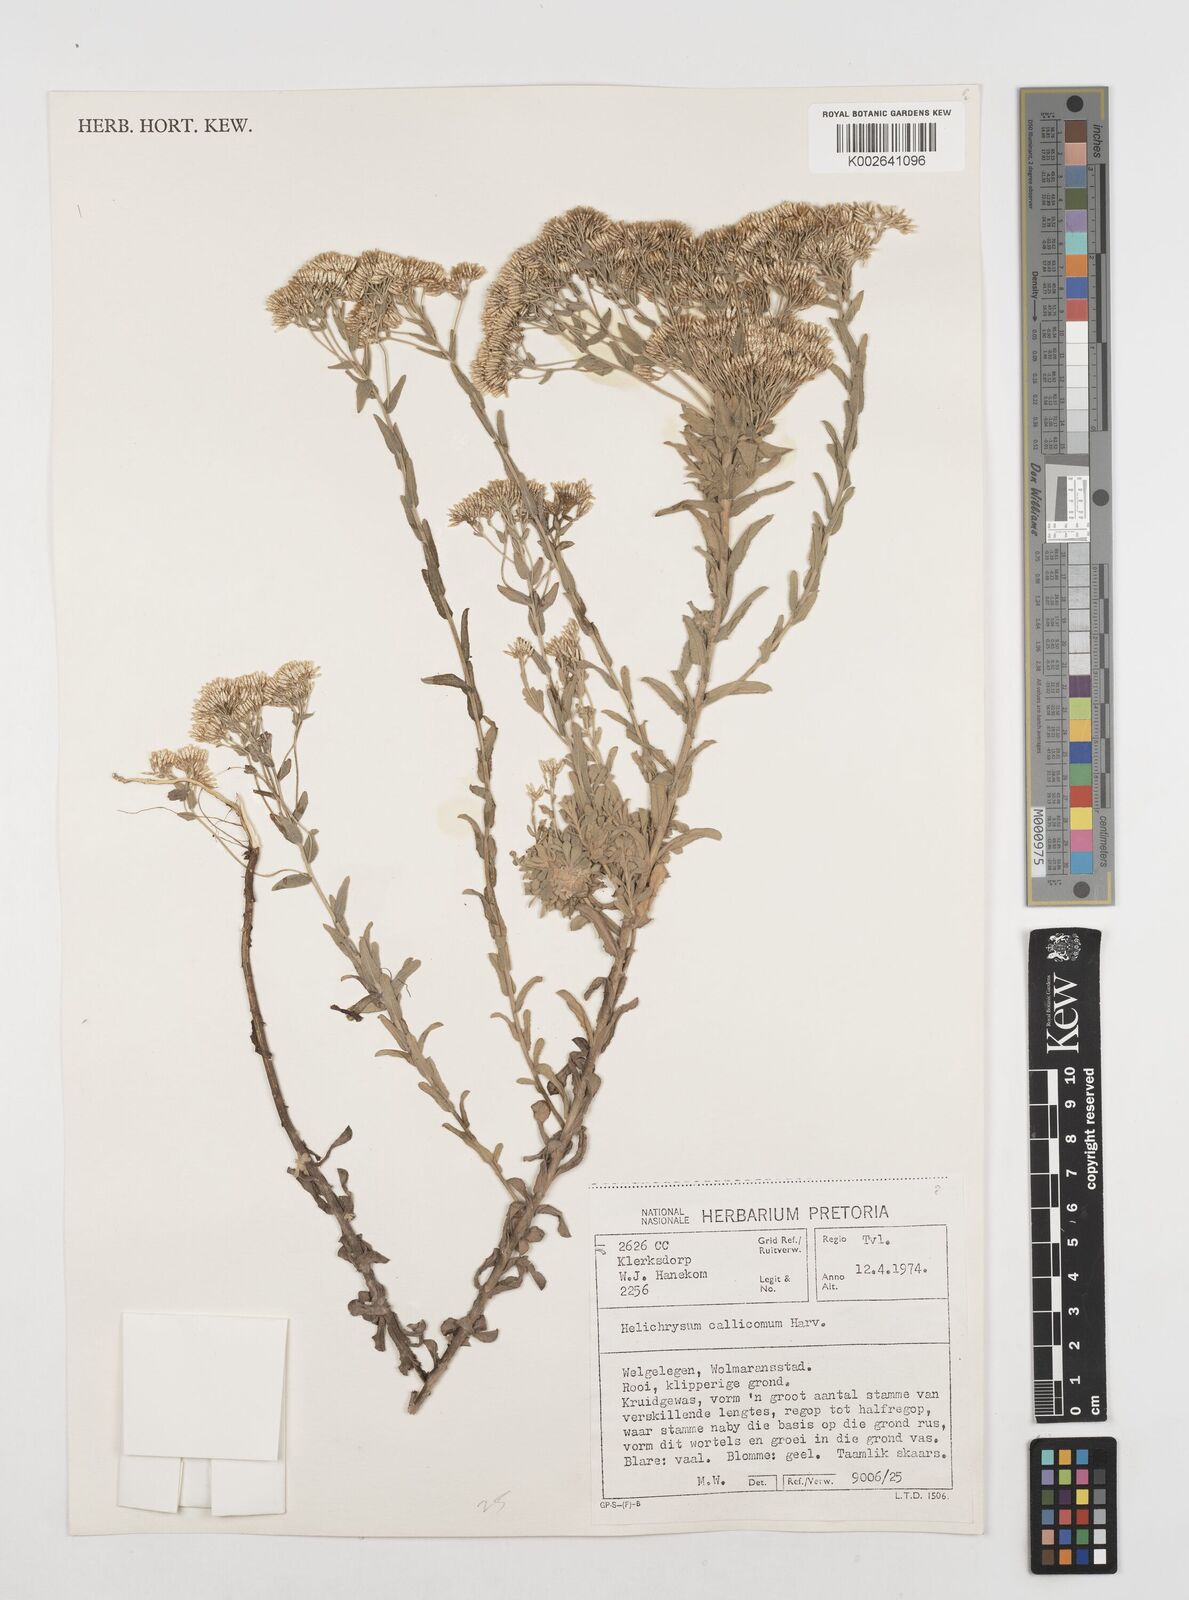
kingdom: Plantae
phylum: Tracheophyta
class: Magnoliopsida
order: Asterales
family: Asteraceae
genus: Helichrysum
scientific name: Helichrysum callicomum
